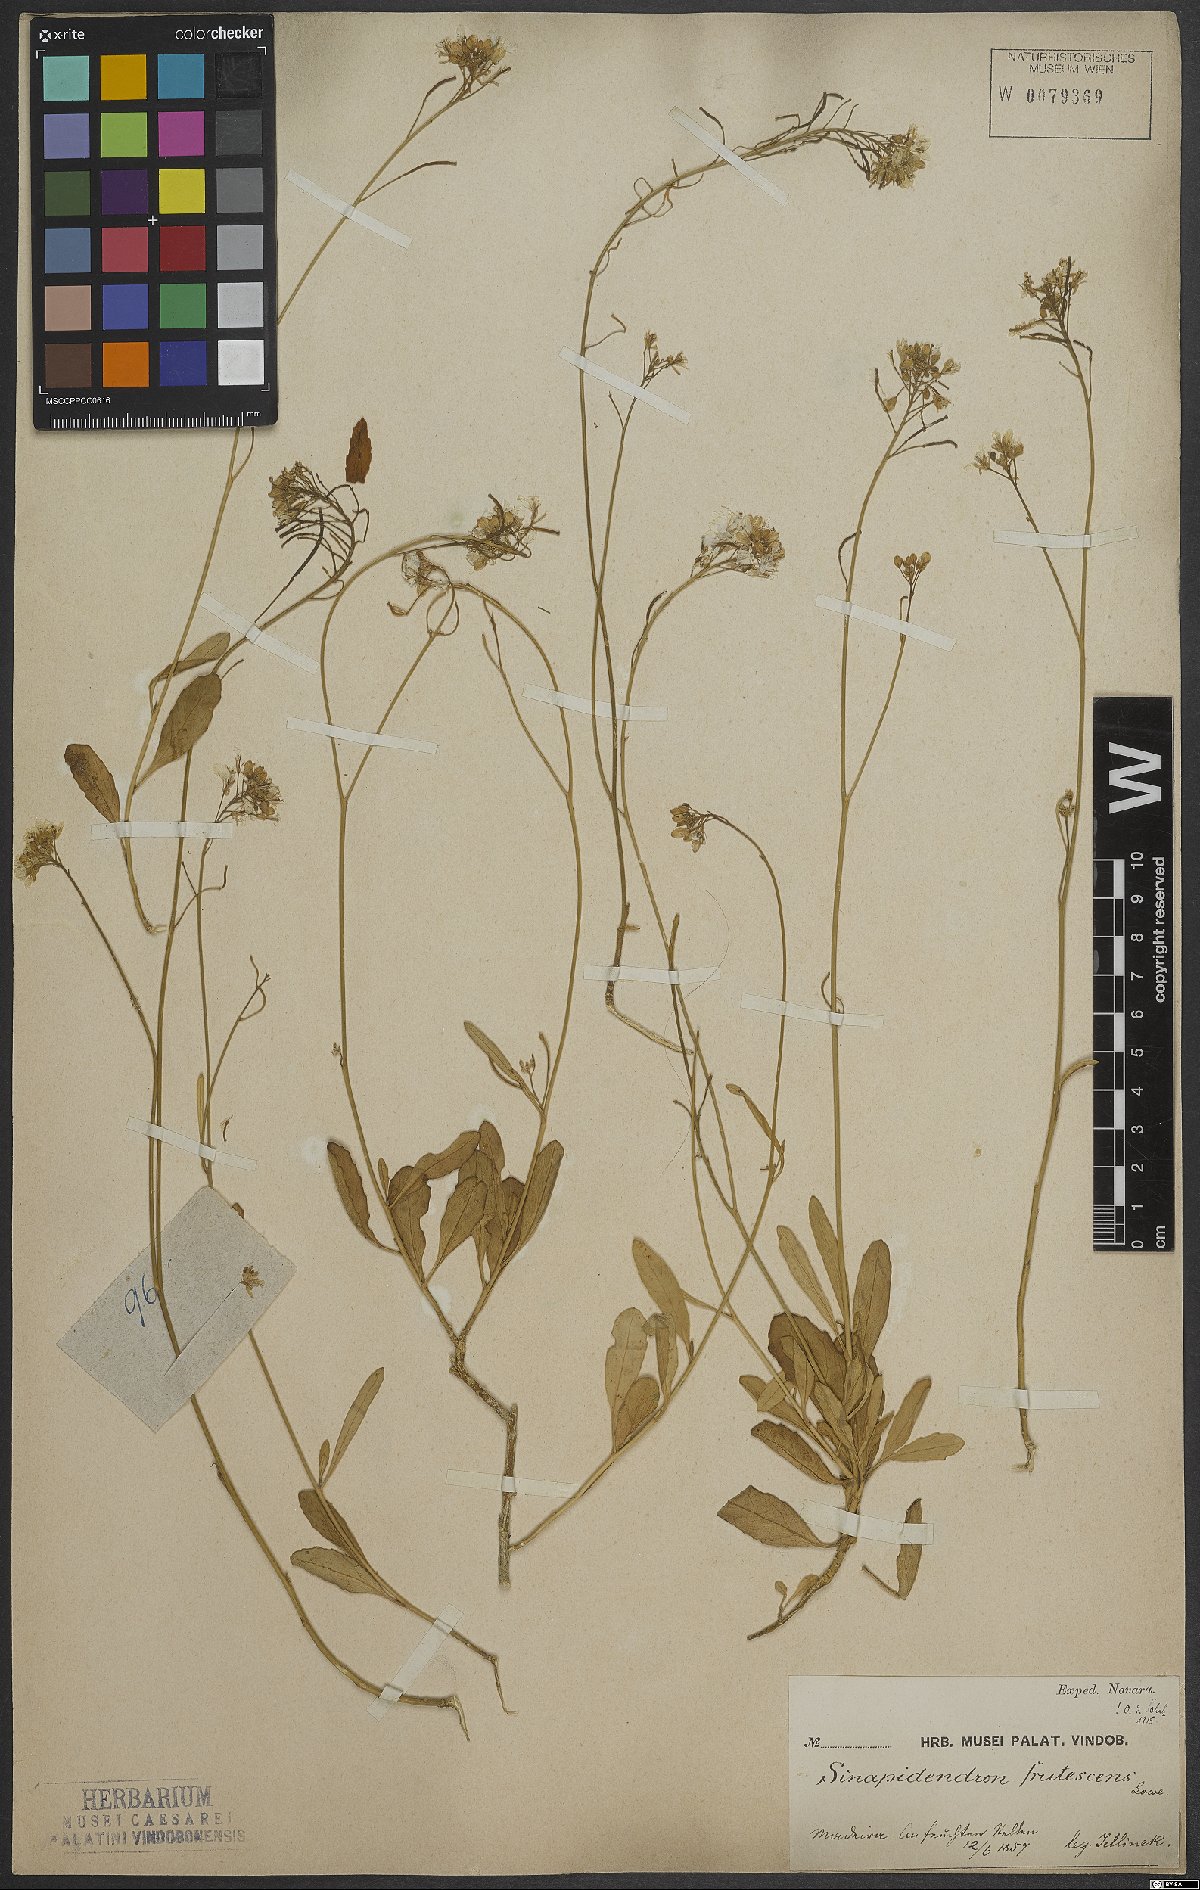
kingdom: Plantae
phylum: Tracheophyta
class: Magnoliopsida
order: Brassicales
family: Brassicaceae
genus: Sinapidendron
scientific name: Sinapidendron frutescens
